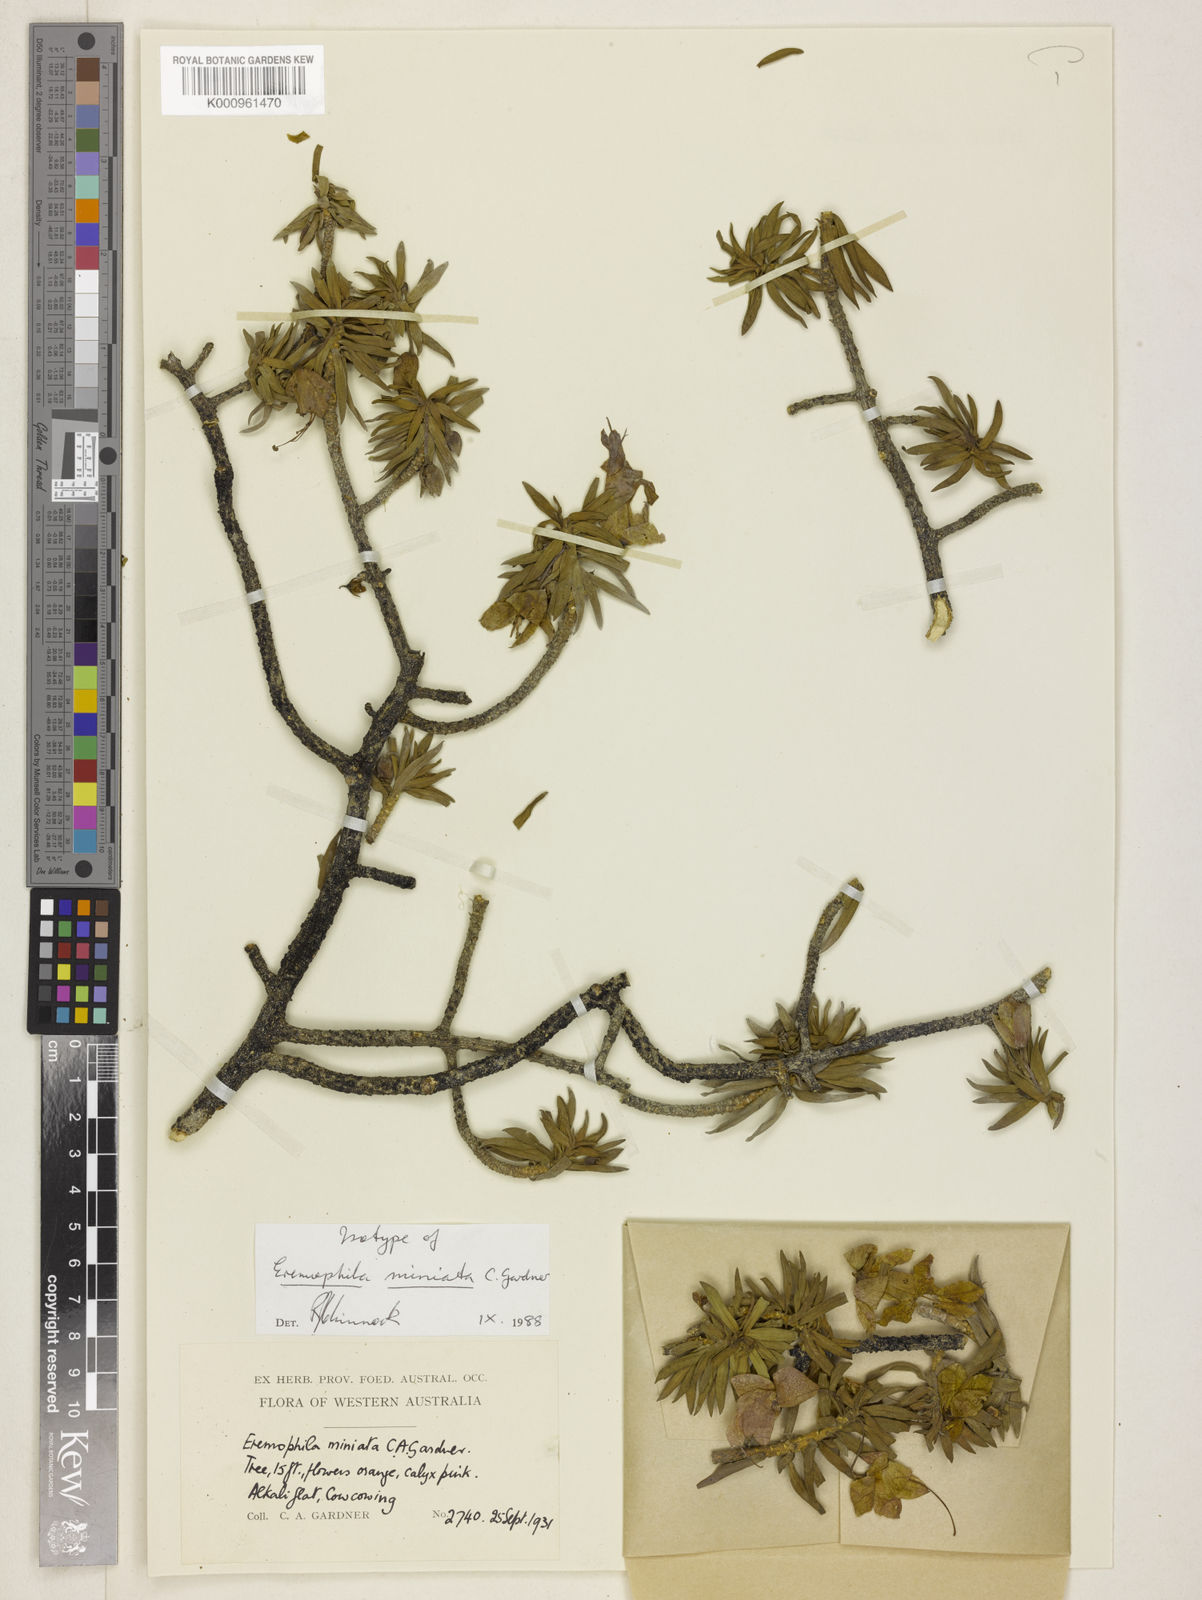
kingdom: Plantae
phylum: Tracheophyta
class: Magnoliopsida
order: Lamiales
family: Scrophulariaceae
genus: Eremophila
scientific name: Eremophila miniata
